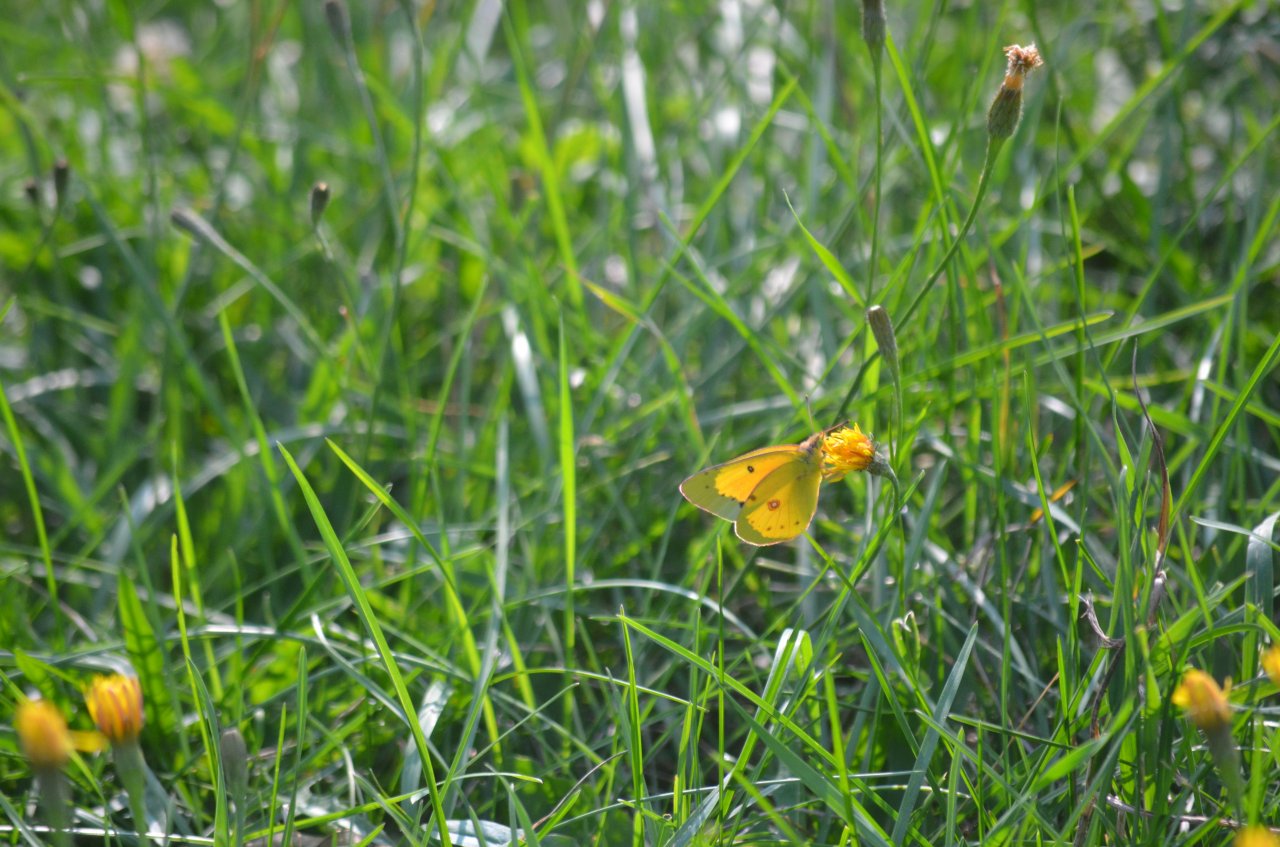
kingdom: Animalia
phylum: Arthropoda
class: Insecta
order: Lepidoptera
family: Pieridae
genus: Colias
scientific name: Colias eurytheme
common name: Orange Sulphur
